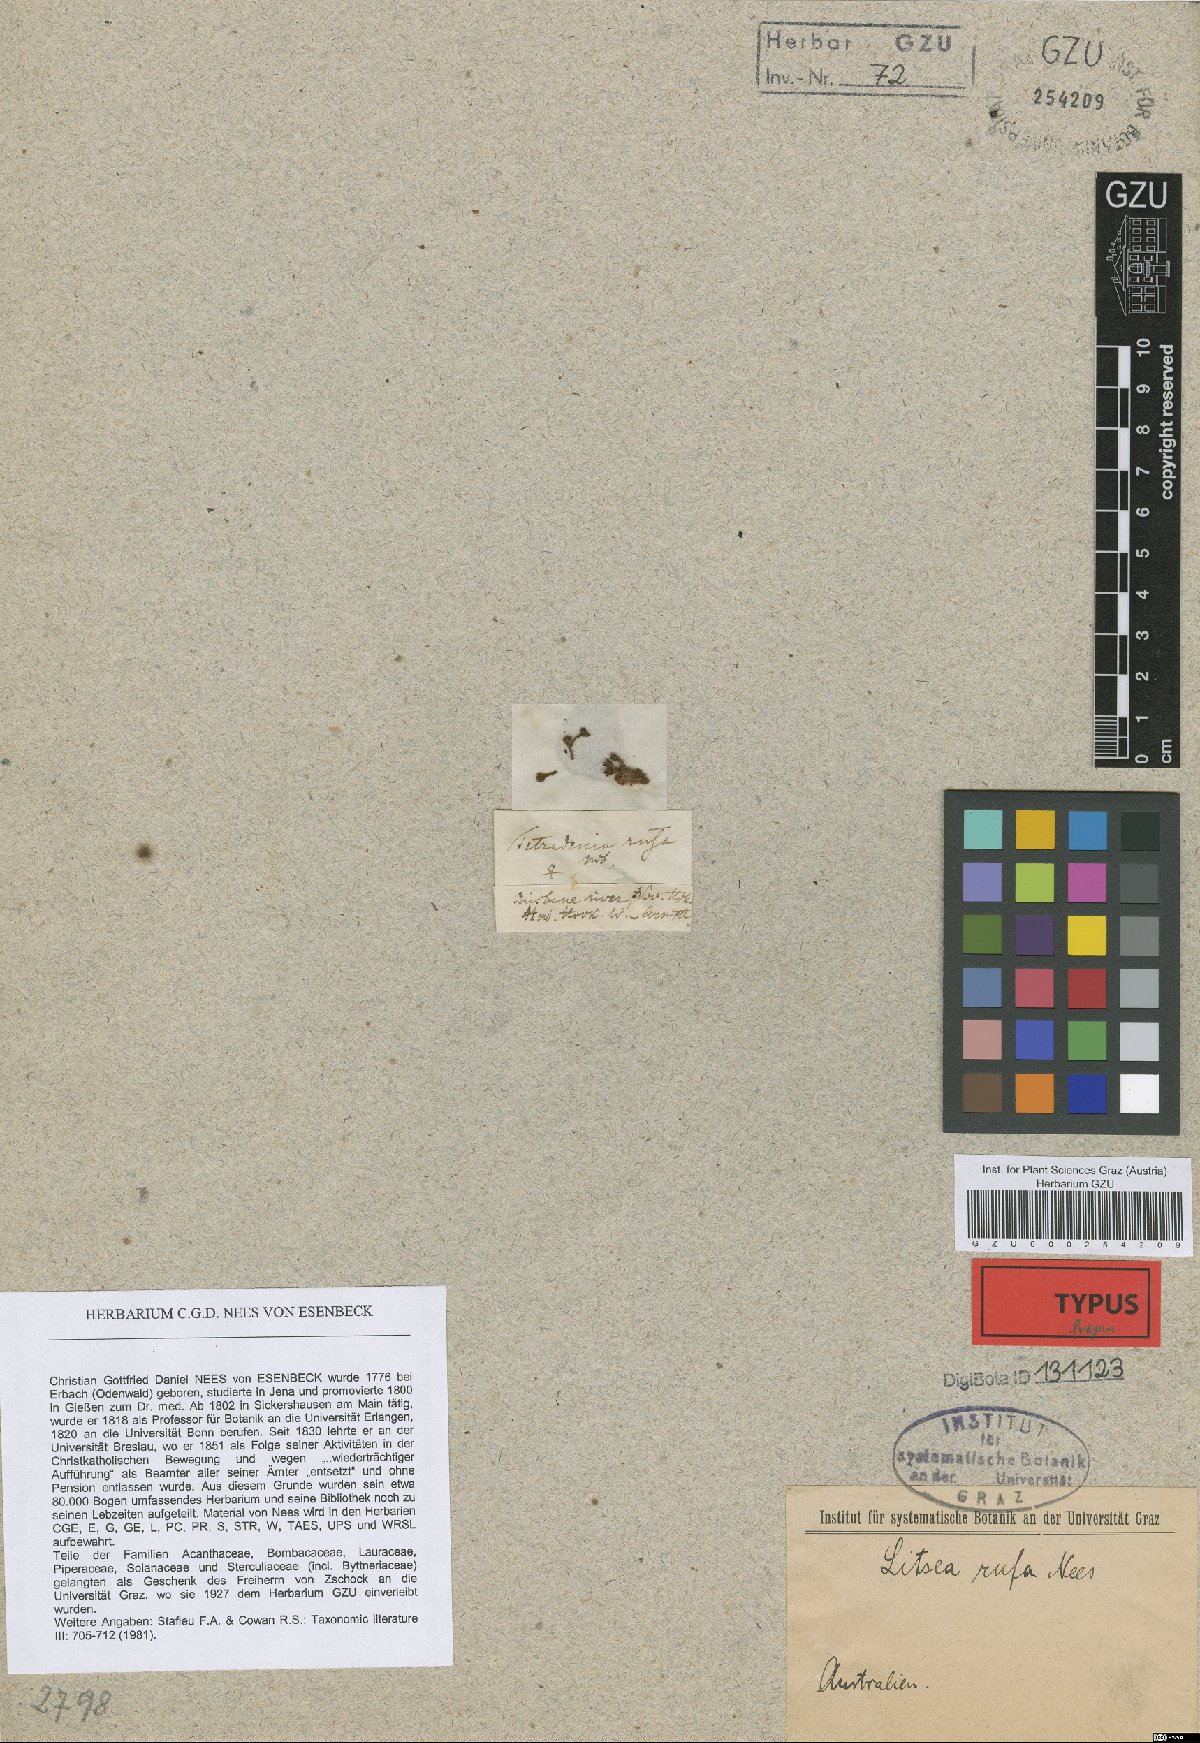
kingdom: Plantae
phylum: Tracheophyta
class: Magnoliopsida
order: Laurales
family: Lauraceae
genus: Neolitsea
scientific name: Neolitsea dealbata
